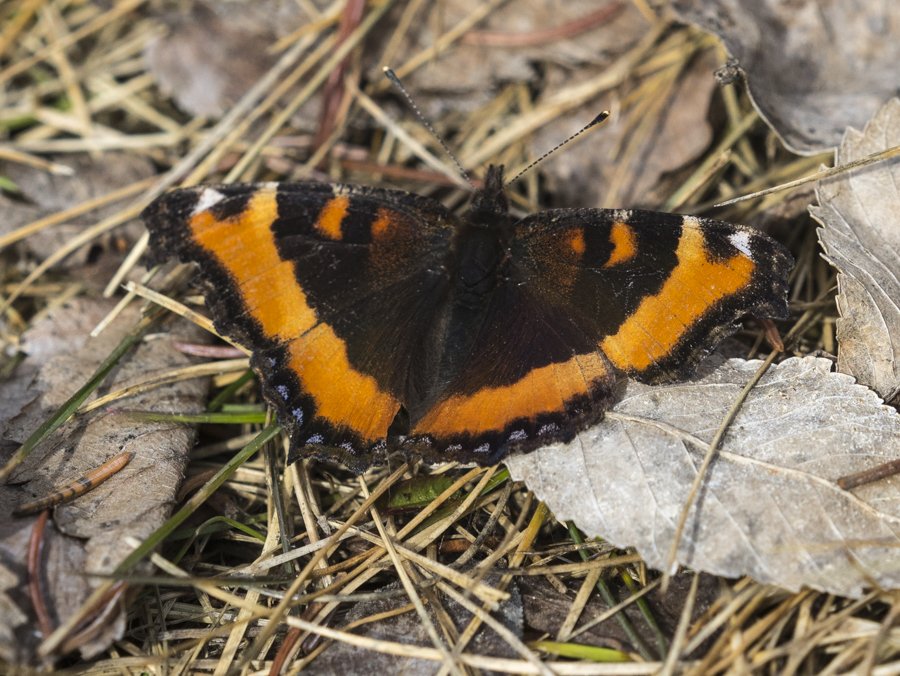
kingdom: Animalia
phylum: Arthropoda
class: Insecta
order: Lepidoptera
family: Nymphalidae
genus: Aglais
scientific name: Aglais milberti
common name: Milbert's Tortoiseshell
